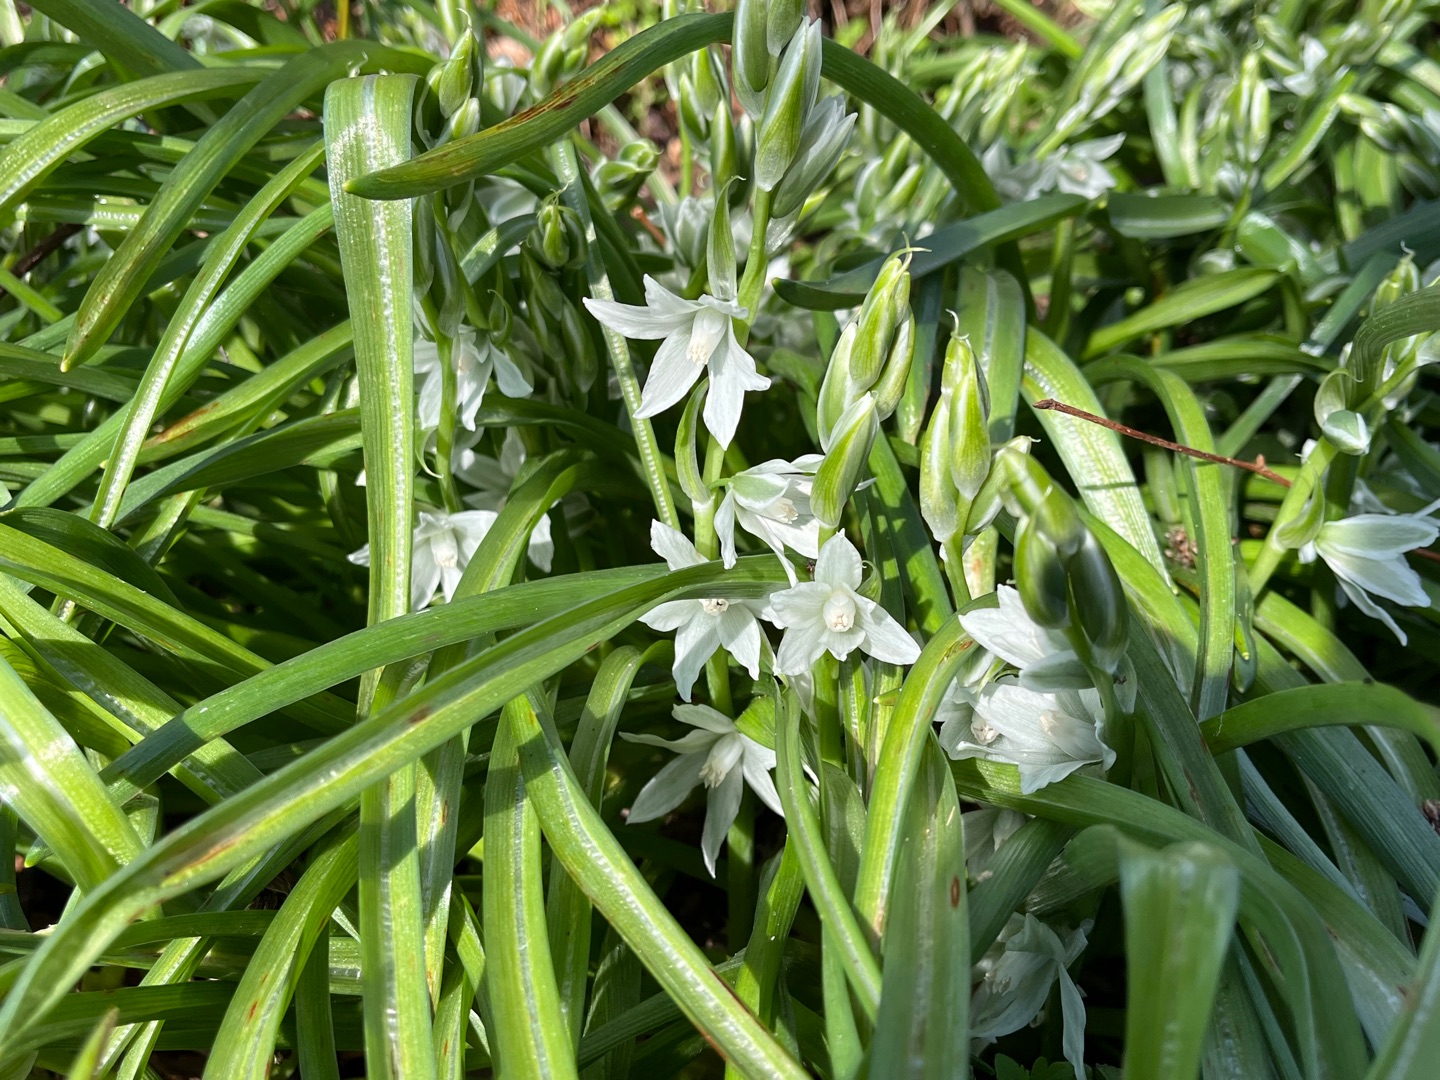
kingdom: Plantae
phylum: Tracheophyta
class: Liliopsida
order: Asparagales
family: Asparagaceae
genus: Ornithogalum
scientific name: Ornithogalum nutans
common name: Nikkende fuglemælk
